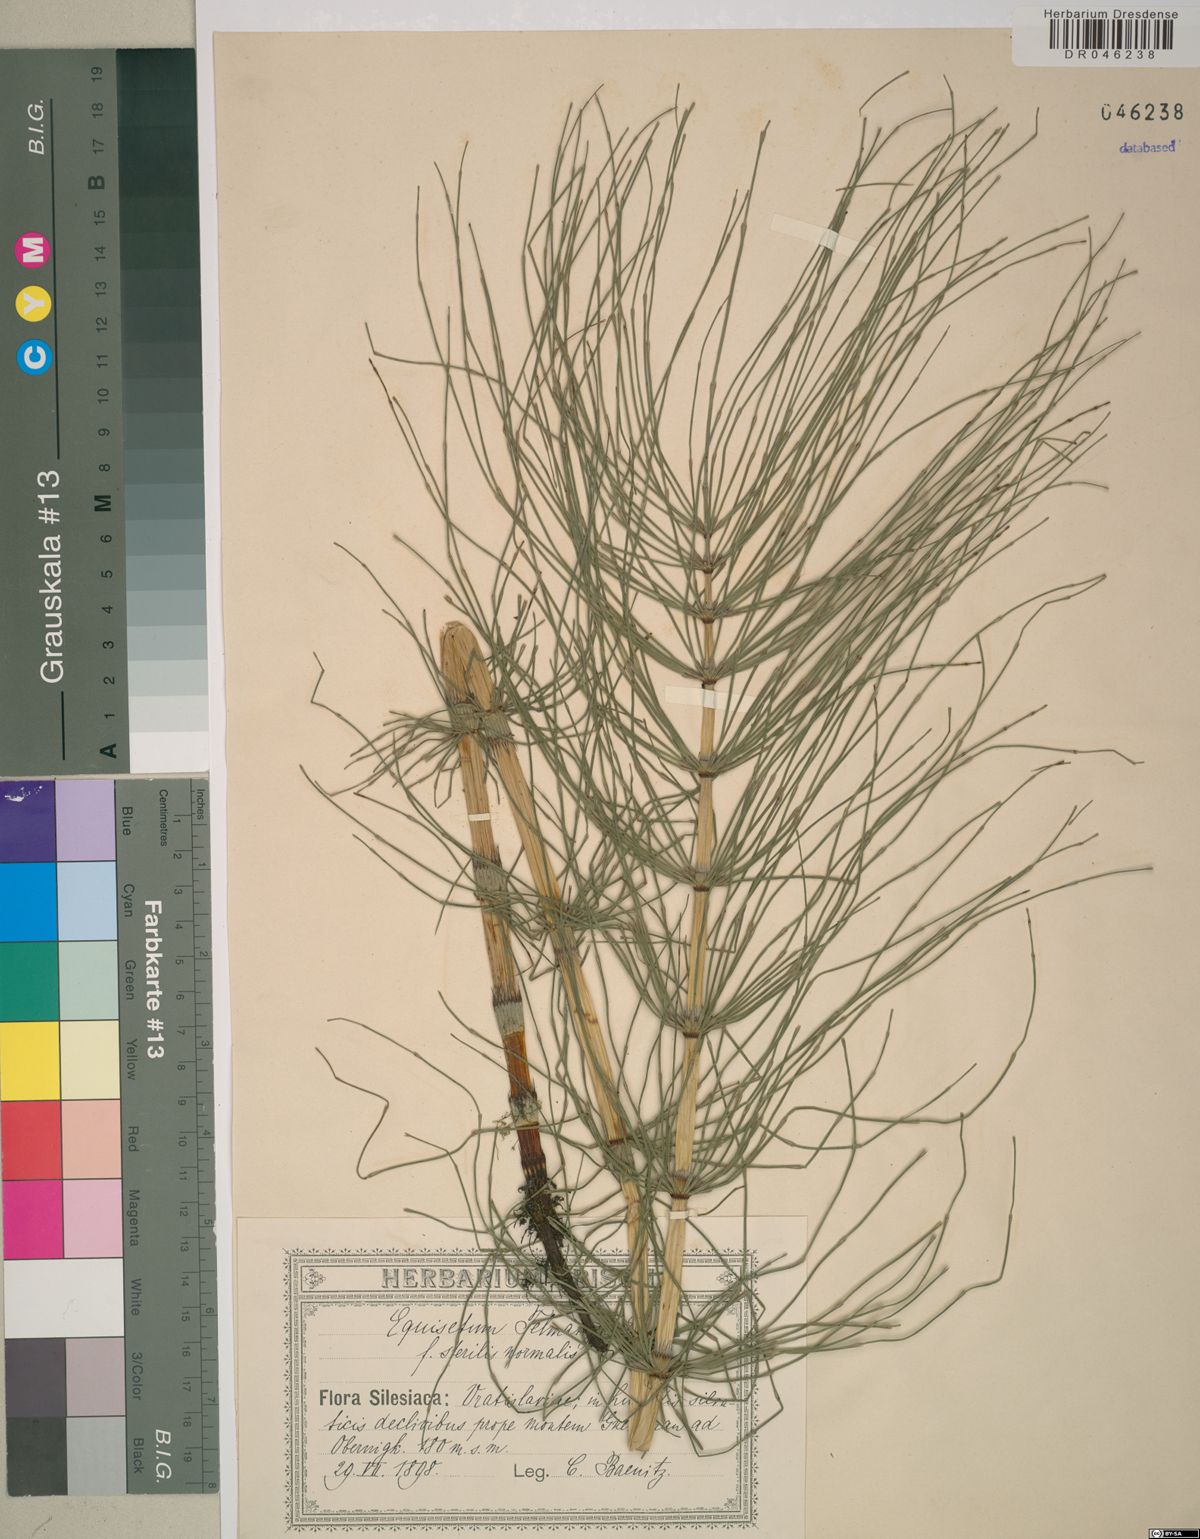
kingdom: Plantae
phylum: Tracheophyta
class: Polypodiopsida
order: Equisetales
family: Equisetaceae
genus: Equisetum
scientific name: Equisetum telmateia
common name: Great horsetail
